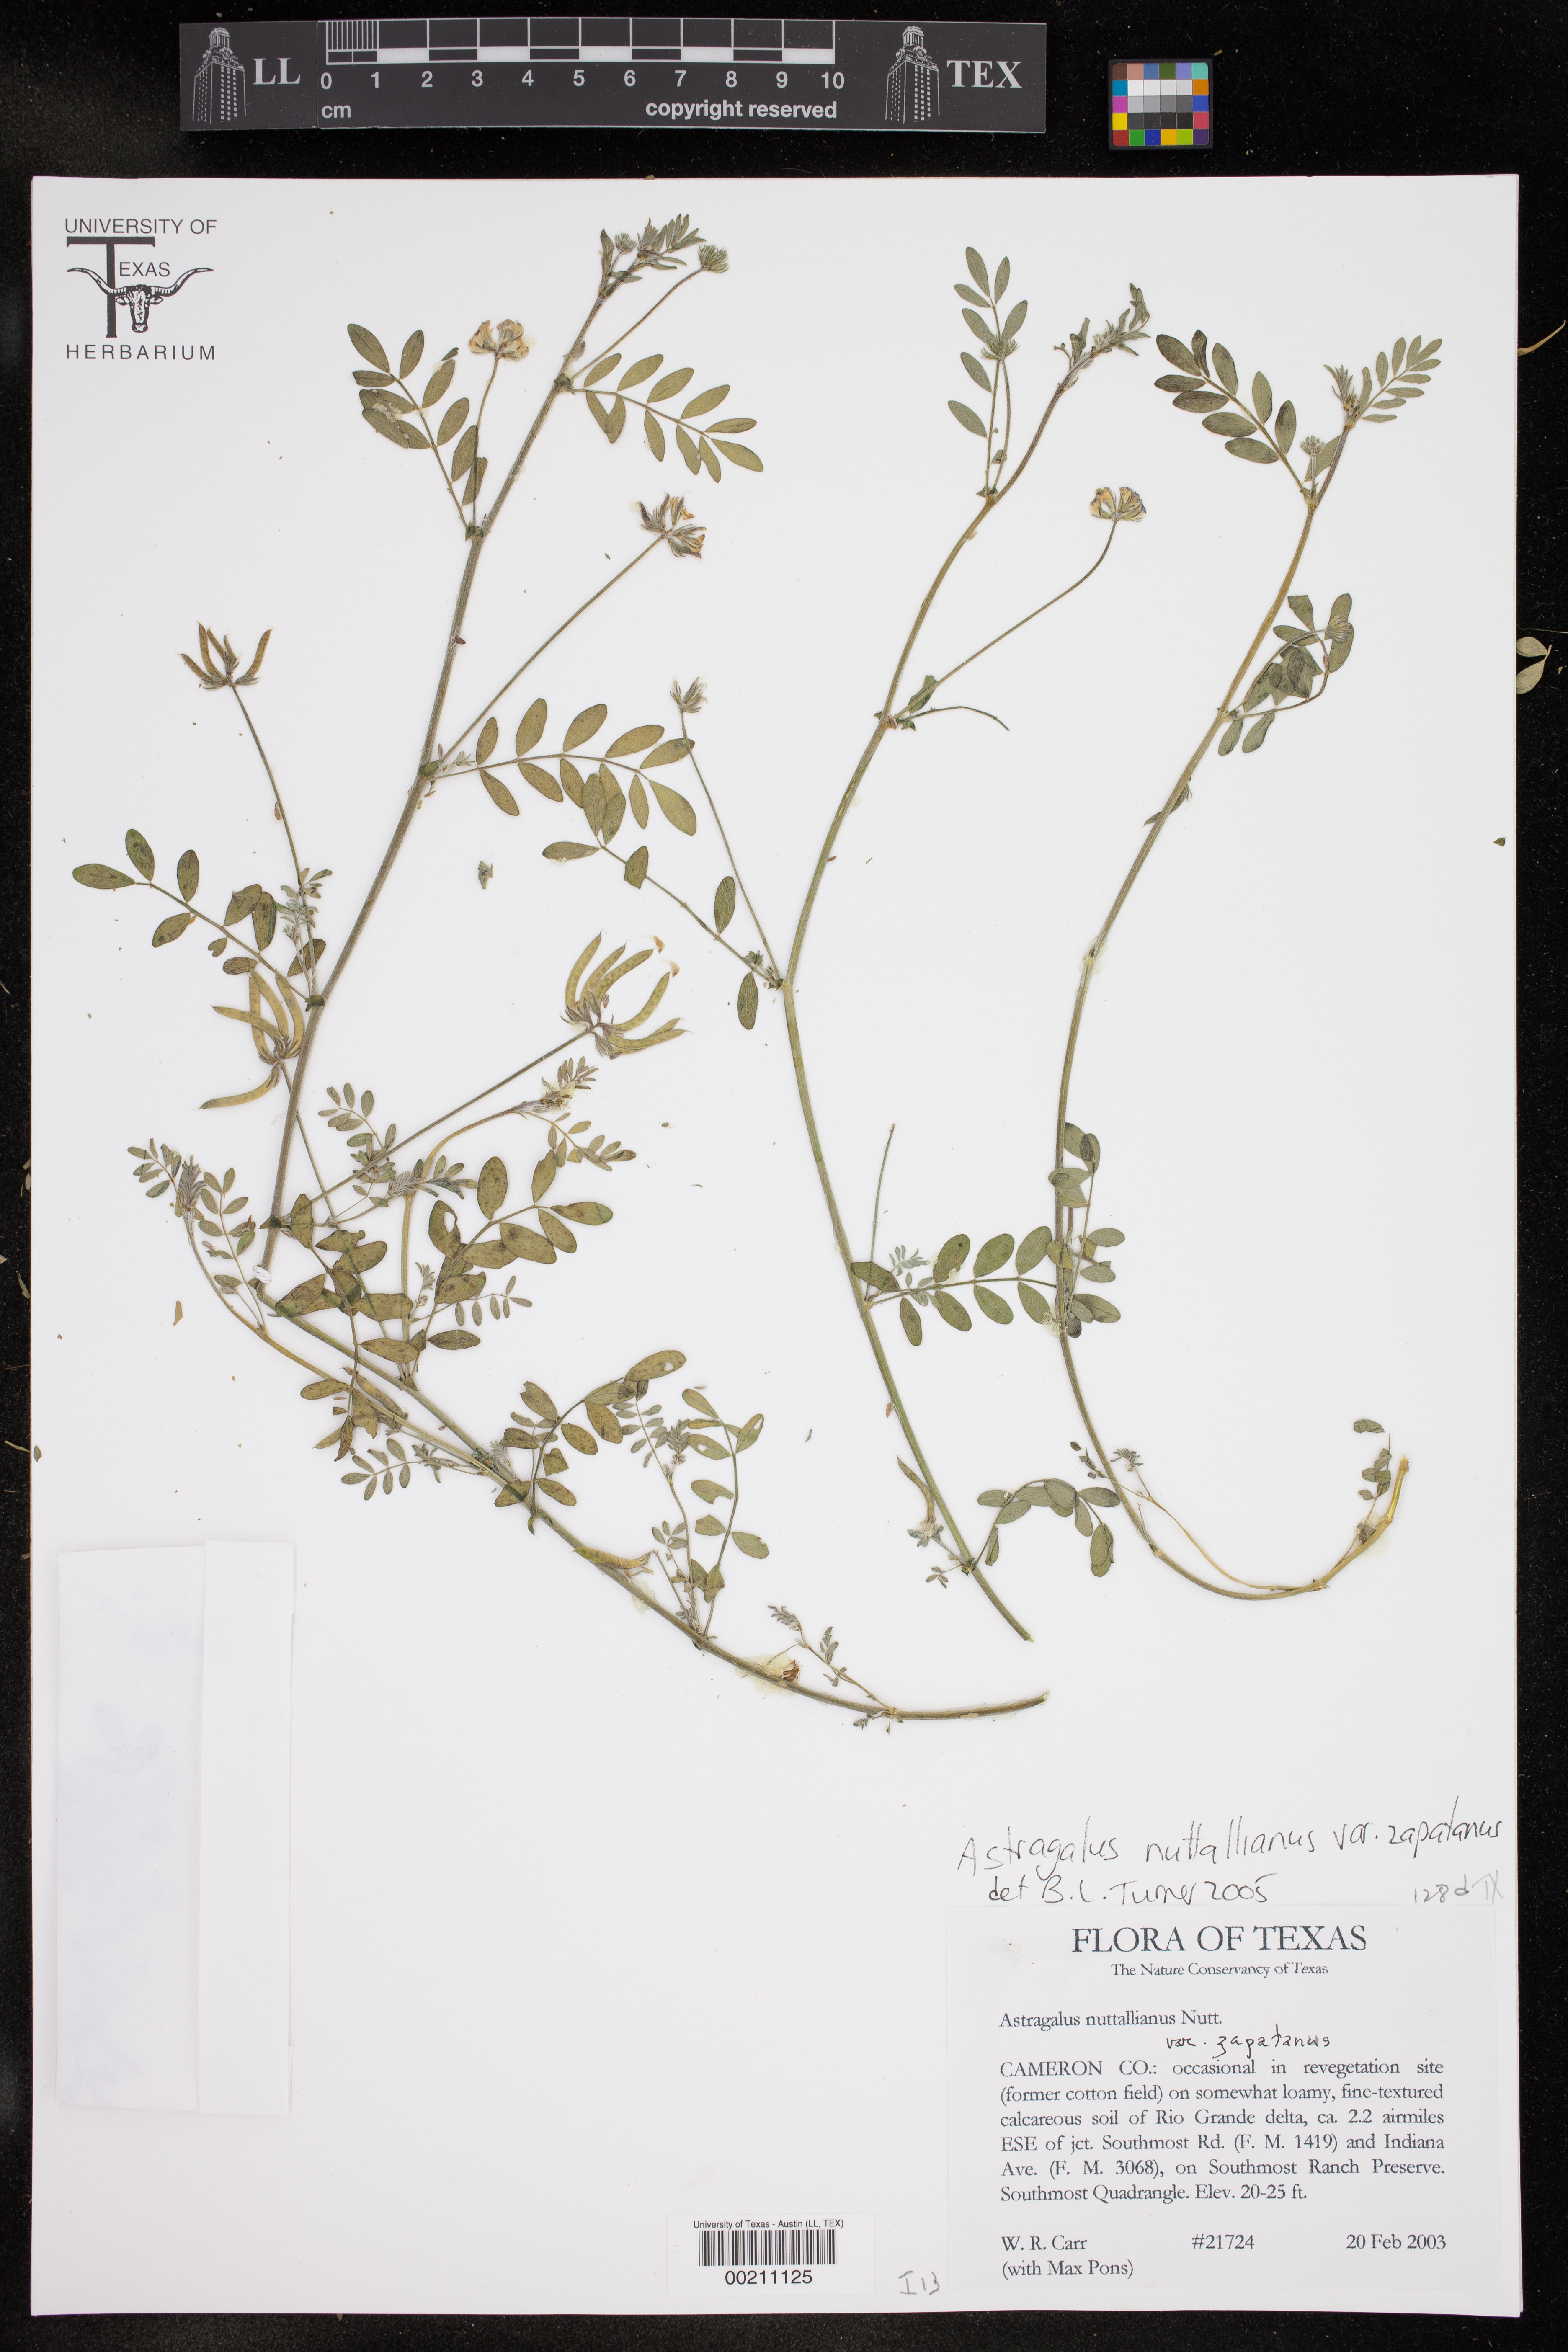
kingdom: Plantae
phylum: Tracheophyta
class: Magnoliopsida
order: Fabales
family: Fabaceae
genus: Astragalus
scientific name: Astragalus nuttallianus
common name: Smallflowered milkvetch
